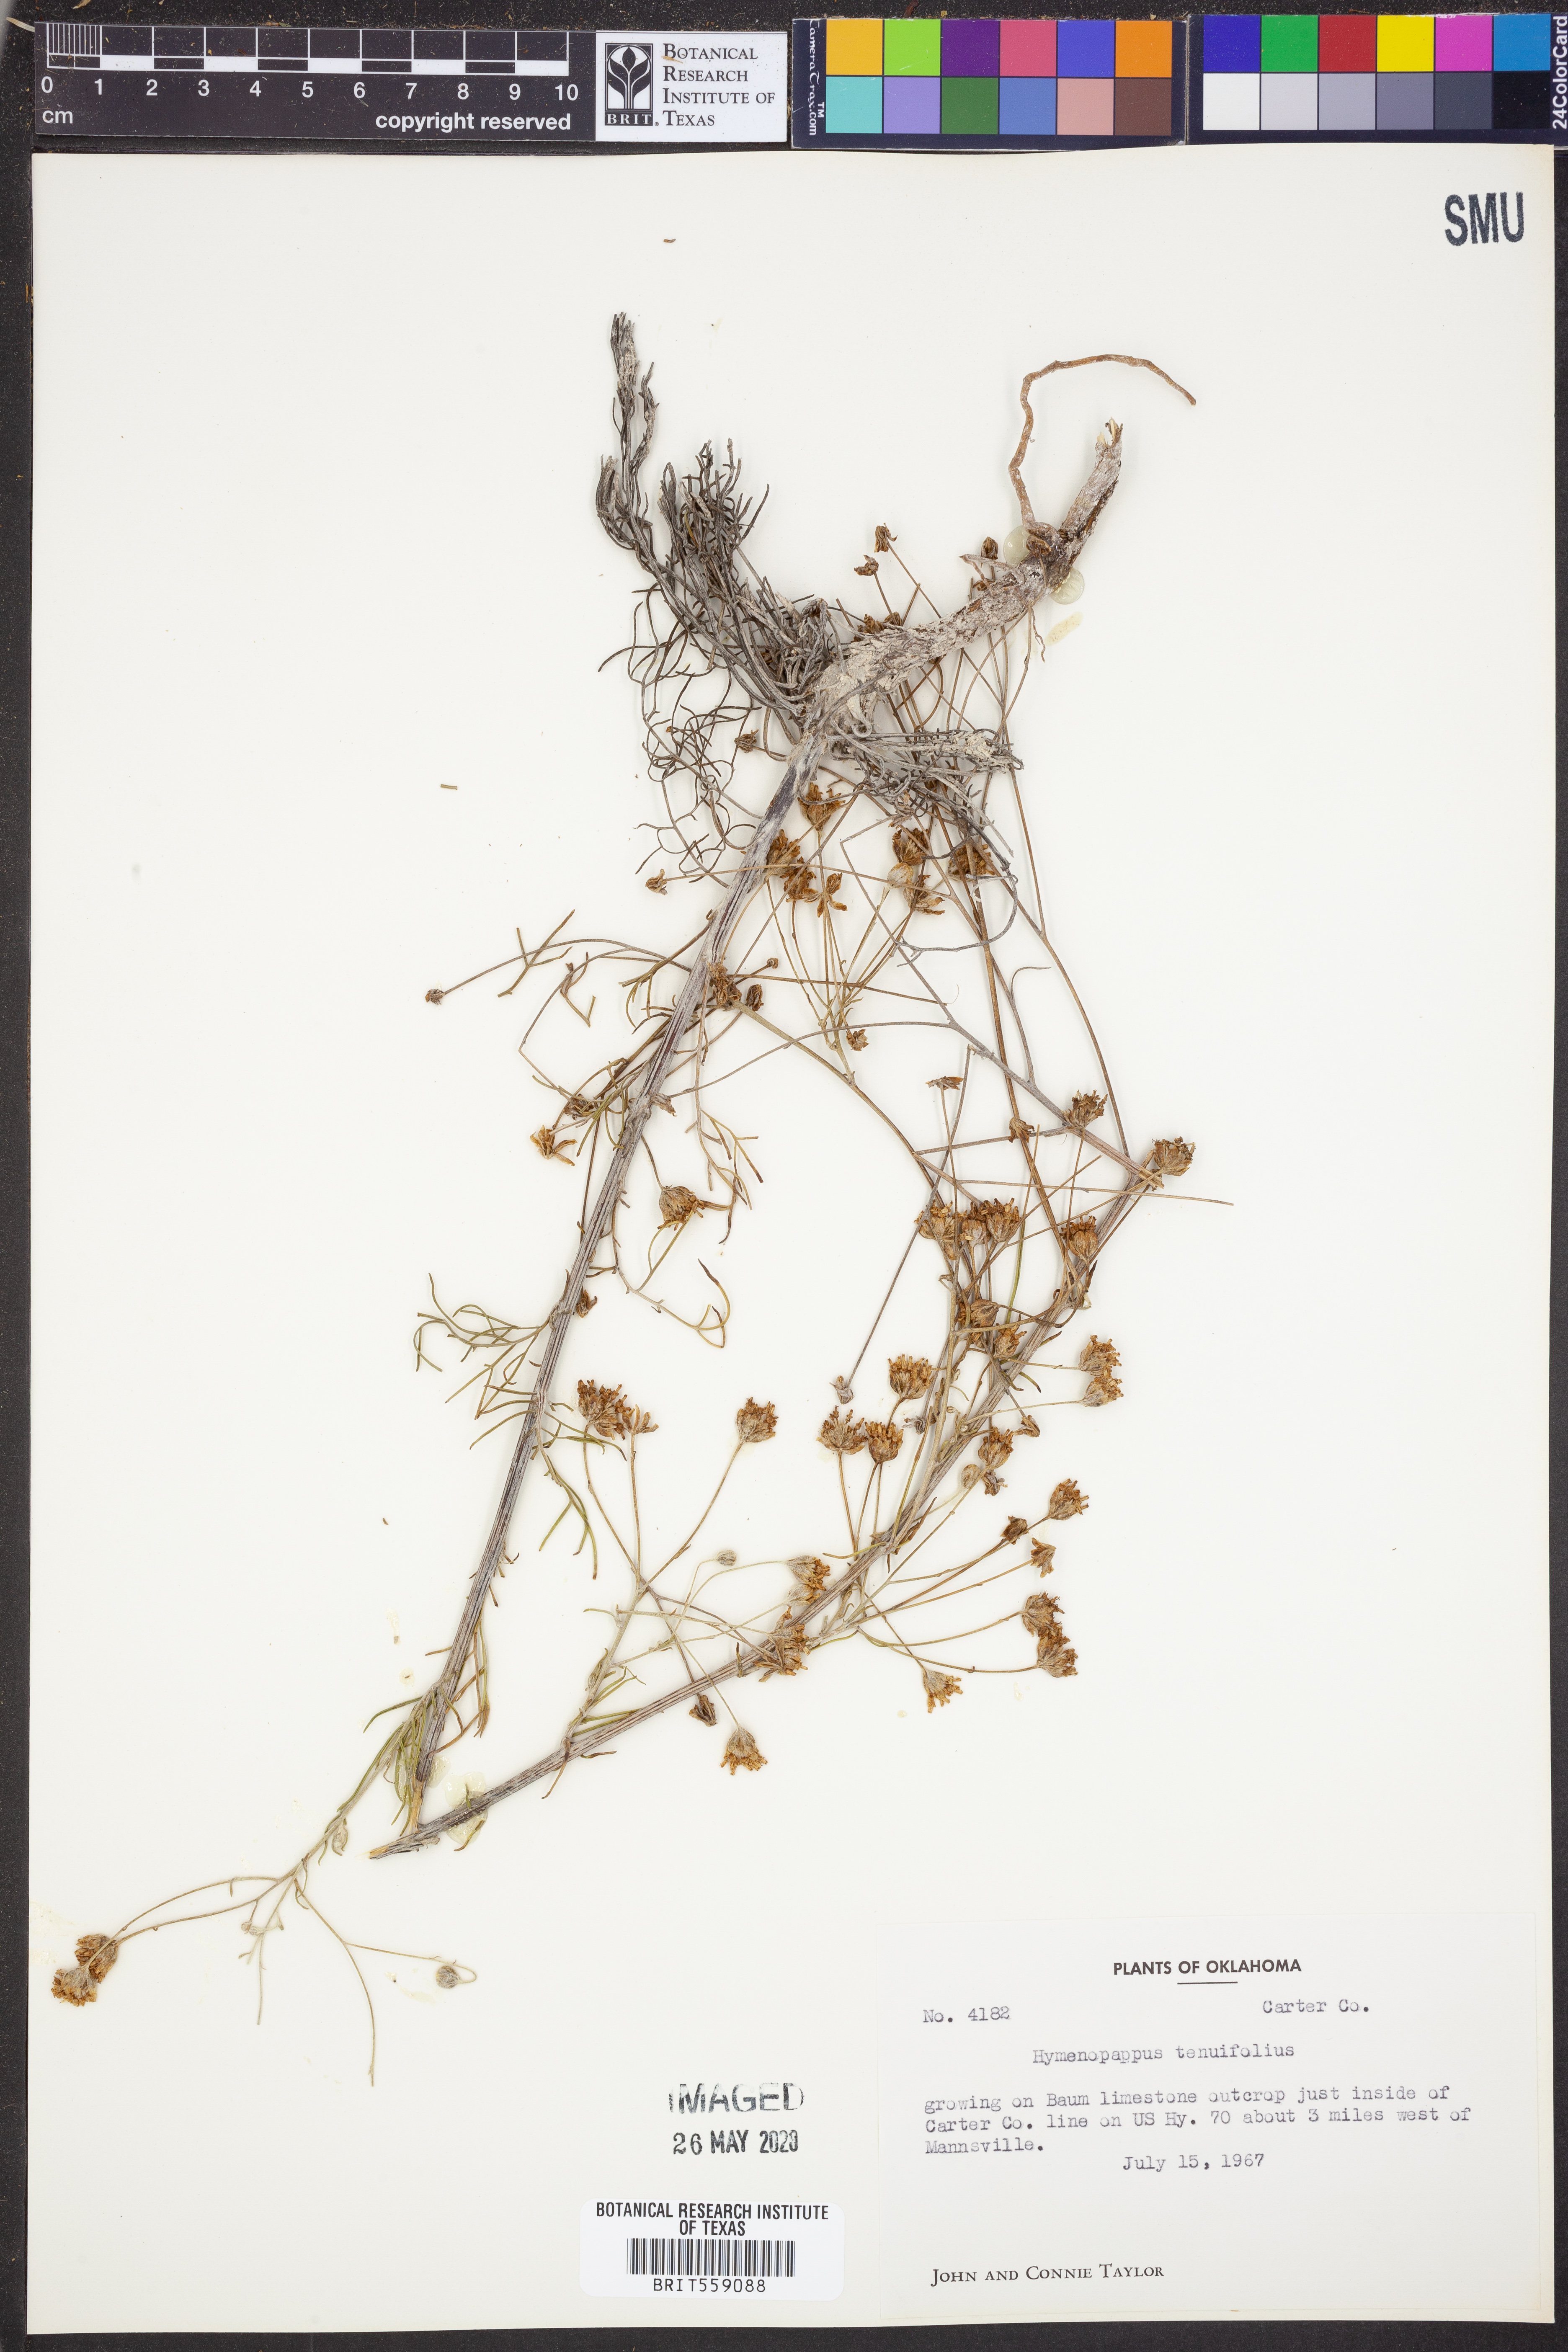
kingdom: Plantae
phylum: Tracheophyta
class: Magnoliopsida
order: Asterales
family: Asteraceae
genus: Hymenopappus
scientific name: Hymenopappus tenuifolius
